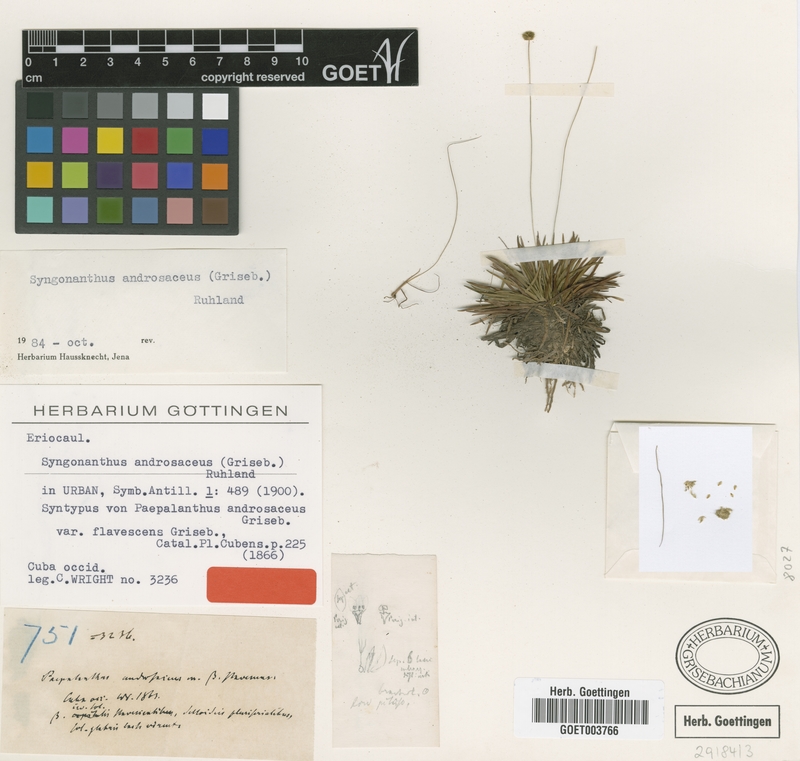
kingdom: Plantae
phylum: Tracheophyta
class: Liliopsida
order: Poales
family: Eriocaulaceae
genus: Syngonanthus
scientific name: Syngonanthus androsaceus
